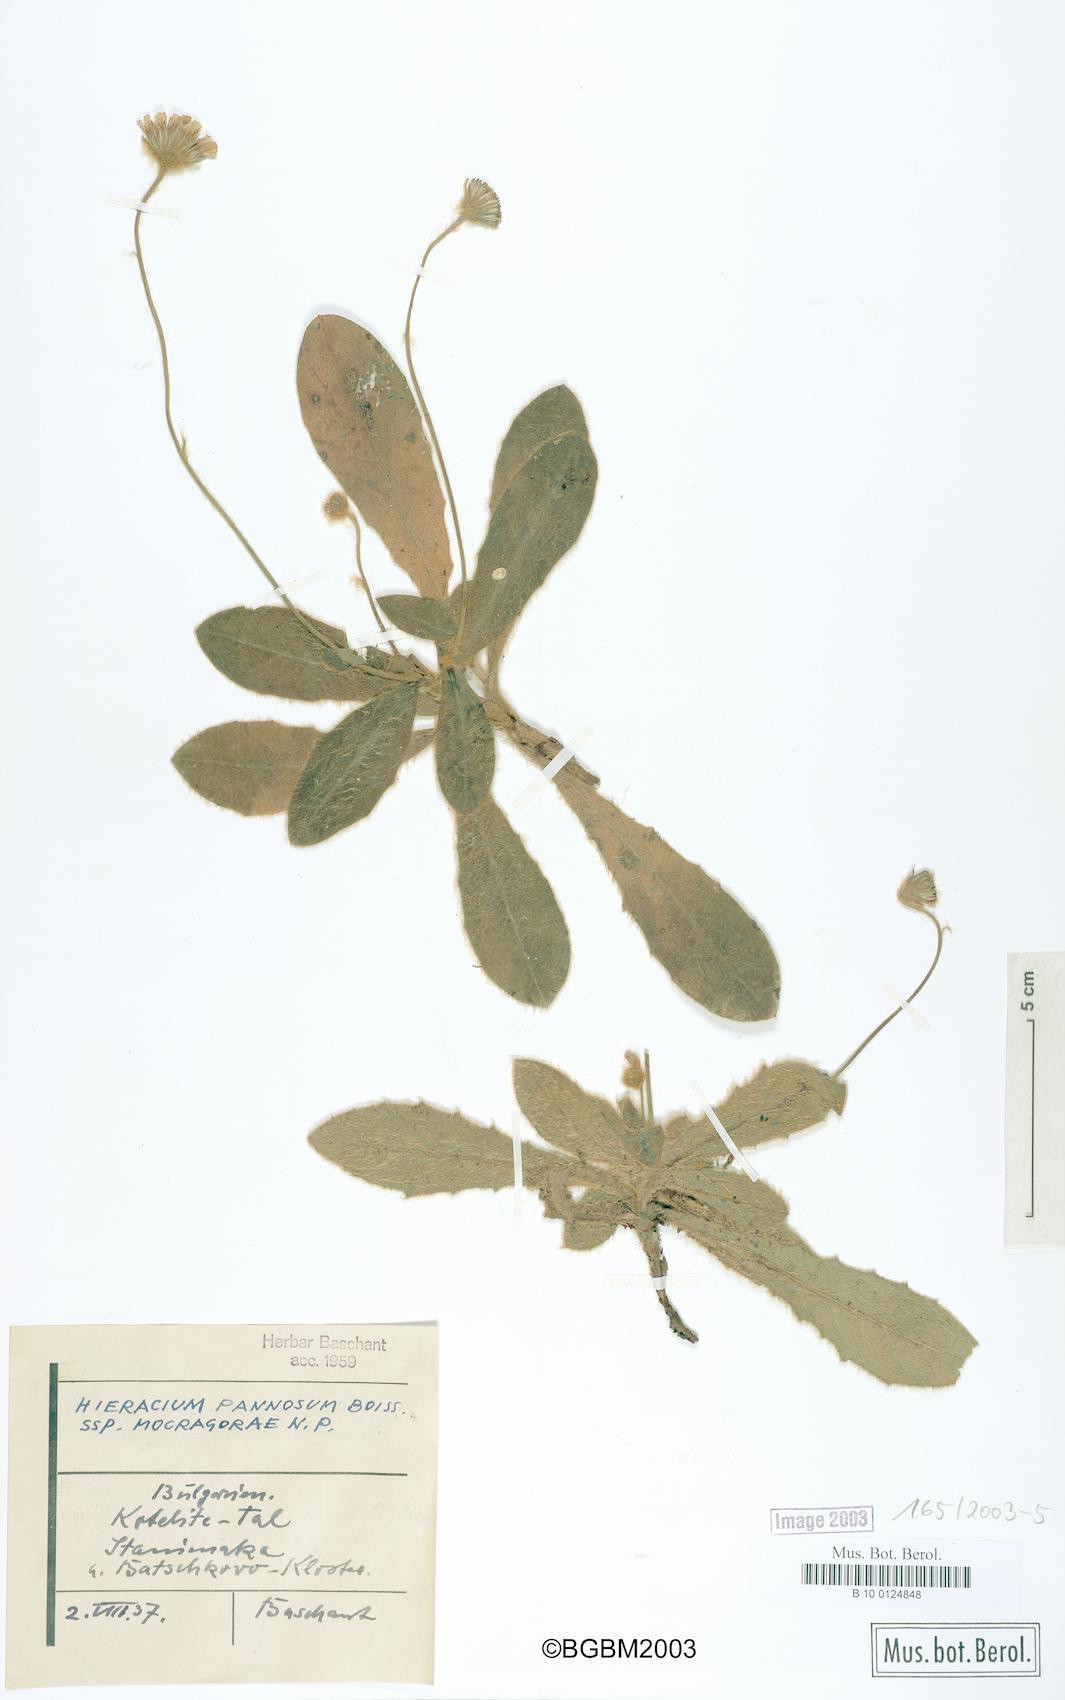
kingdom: Plantae
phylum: Tracheophyta
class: Magnoliopsida
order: Asterales
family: Asteraceae
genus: Hieracium
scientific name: Hieracium pannosum
